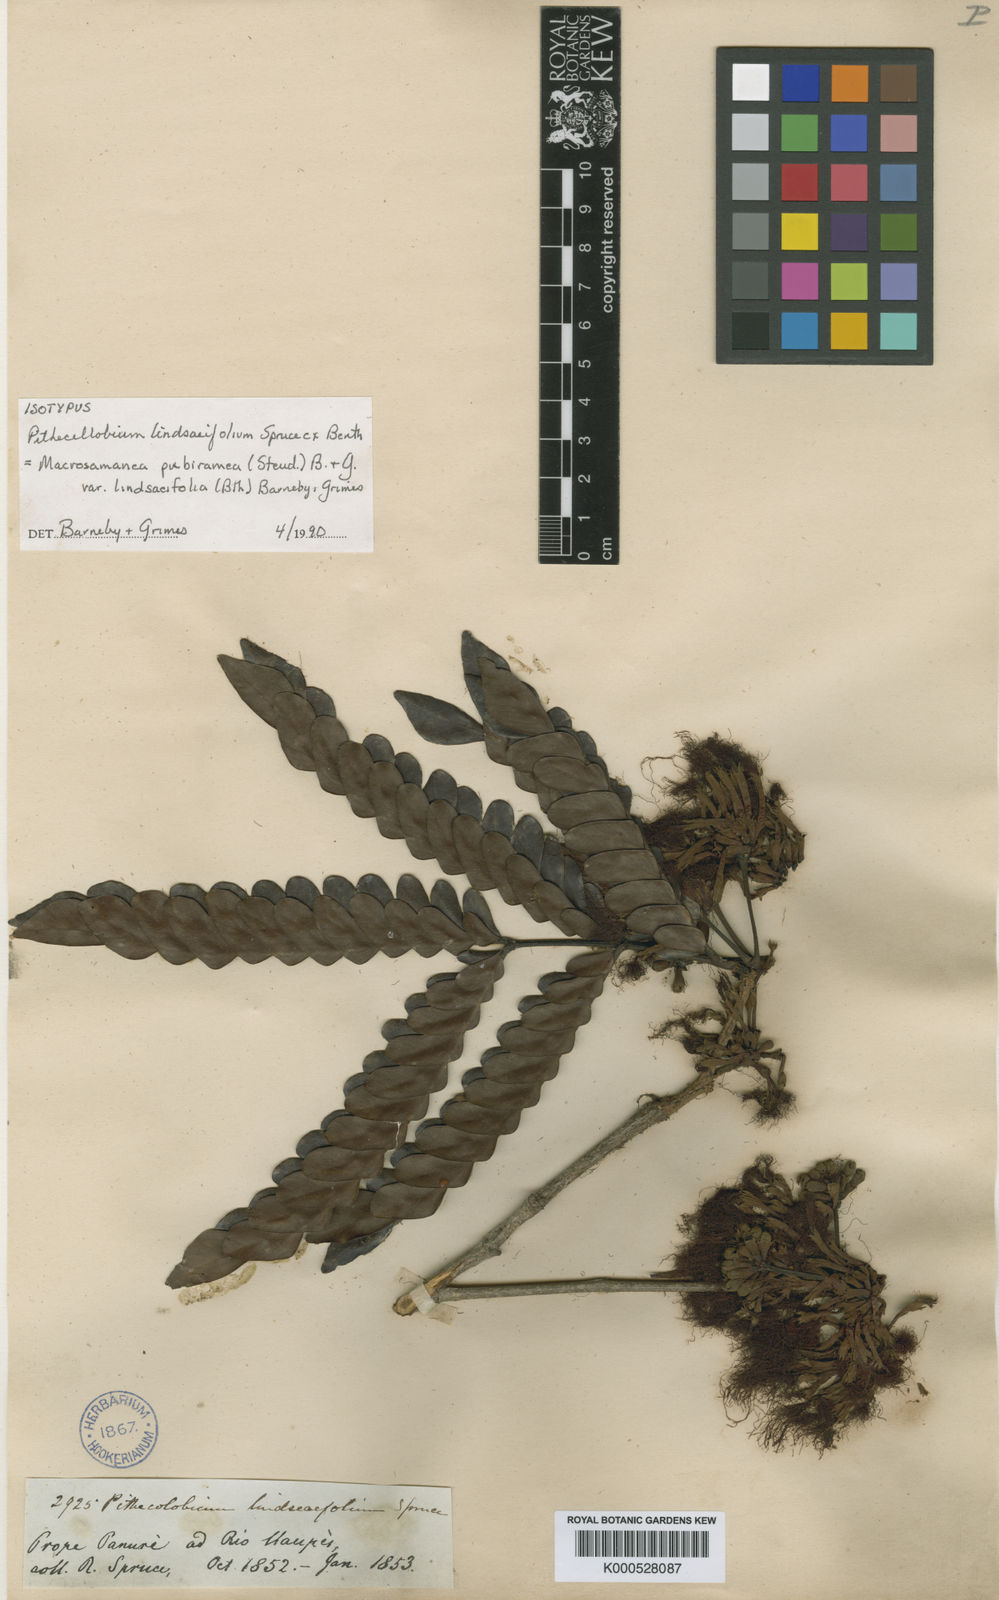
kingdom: Plantae
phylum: Tracheophyta
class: Magnoliopsida
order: Fabales
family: Fabaceae
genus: Macrosamanea
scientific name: Macrosamanea pubiramea
